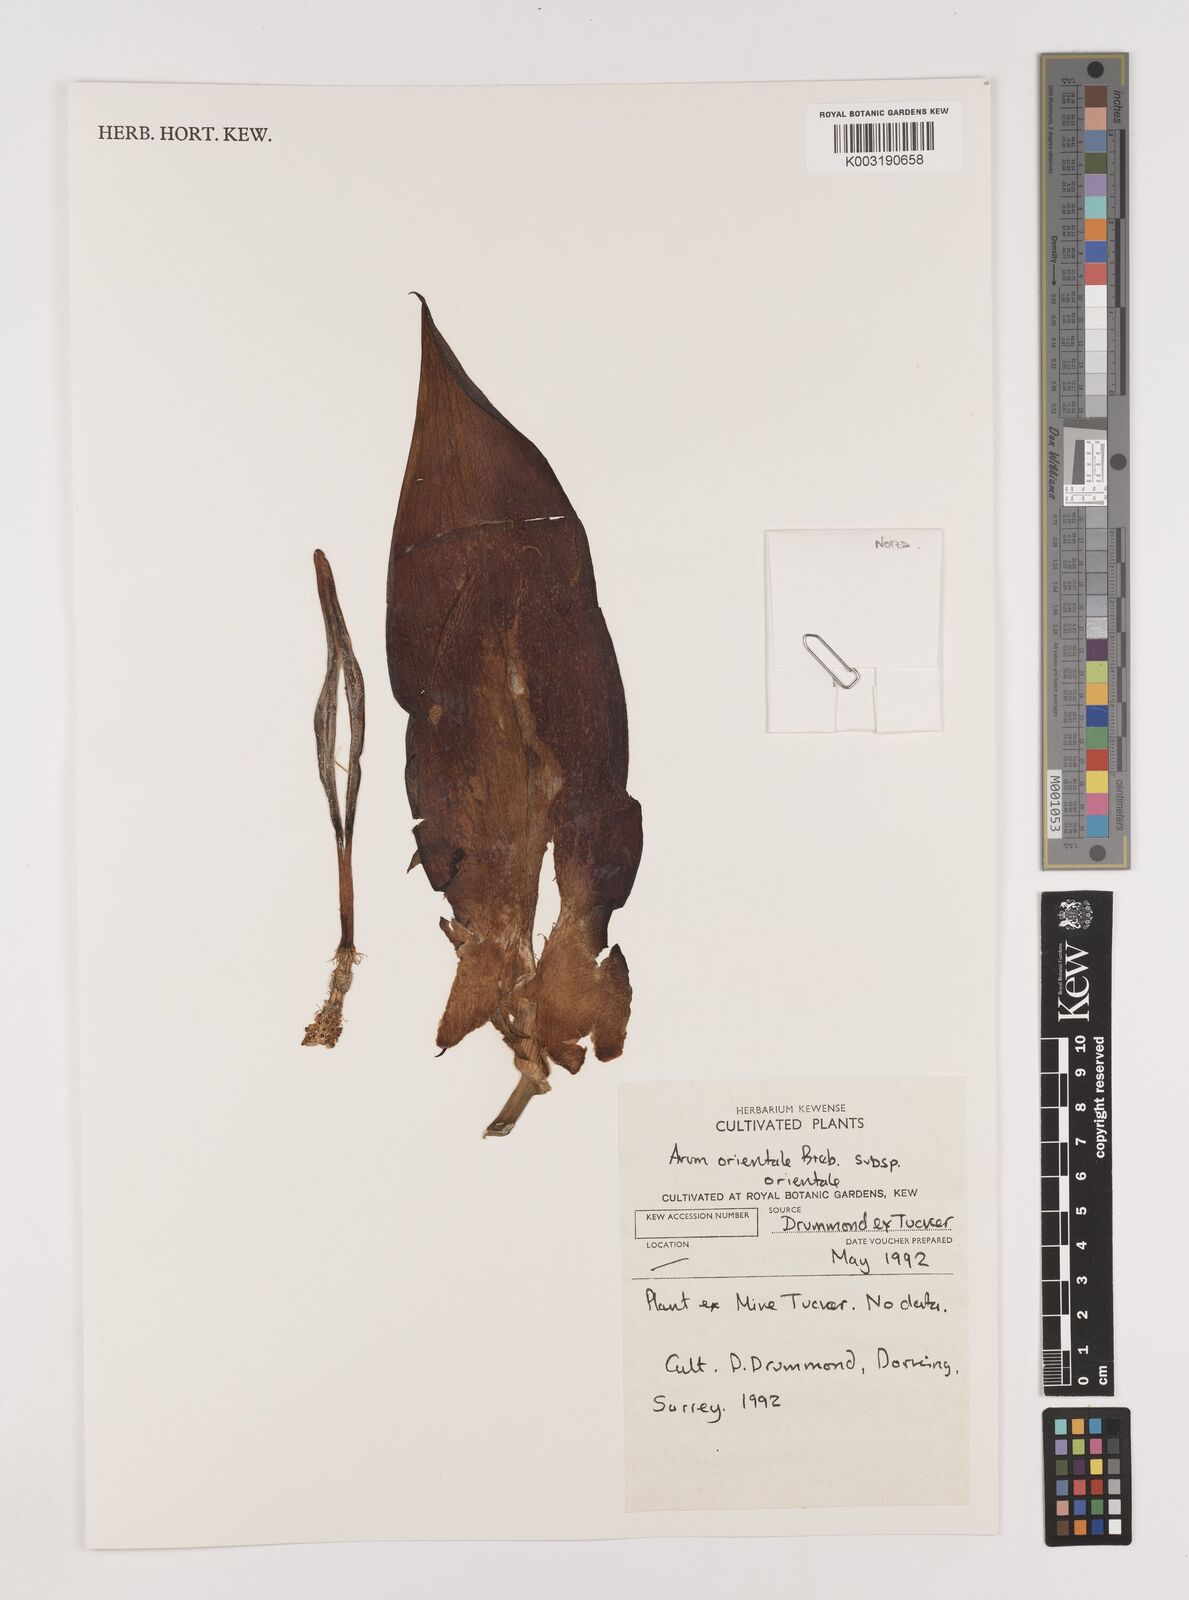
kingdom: Plantae
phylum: Tracheophyta
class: Liliopsida
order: Alismatales
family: Araceae
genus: Arum
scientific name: Arum orientale
